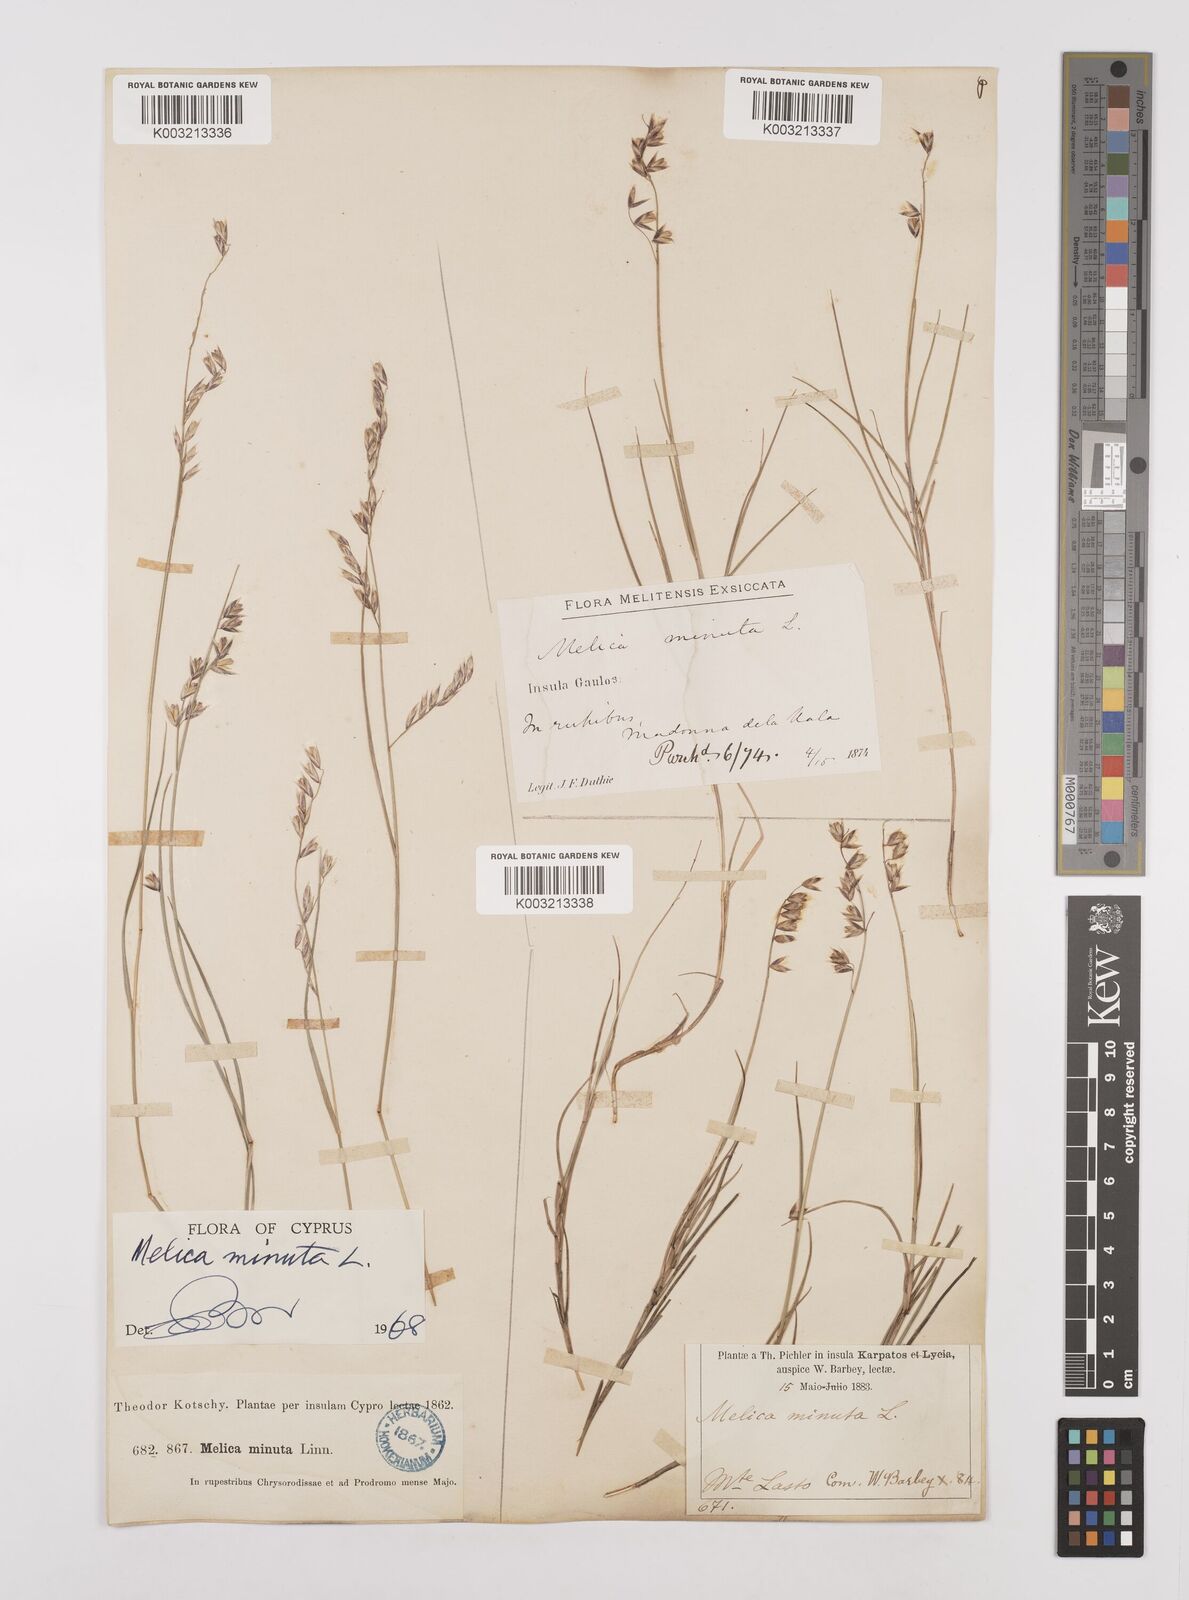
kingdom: Plantae
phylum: Tracheophyta
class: Liliopsida
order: Poales
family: Poaceae
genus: Melica
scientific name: Melica minuta
